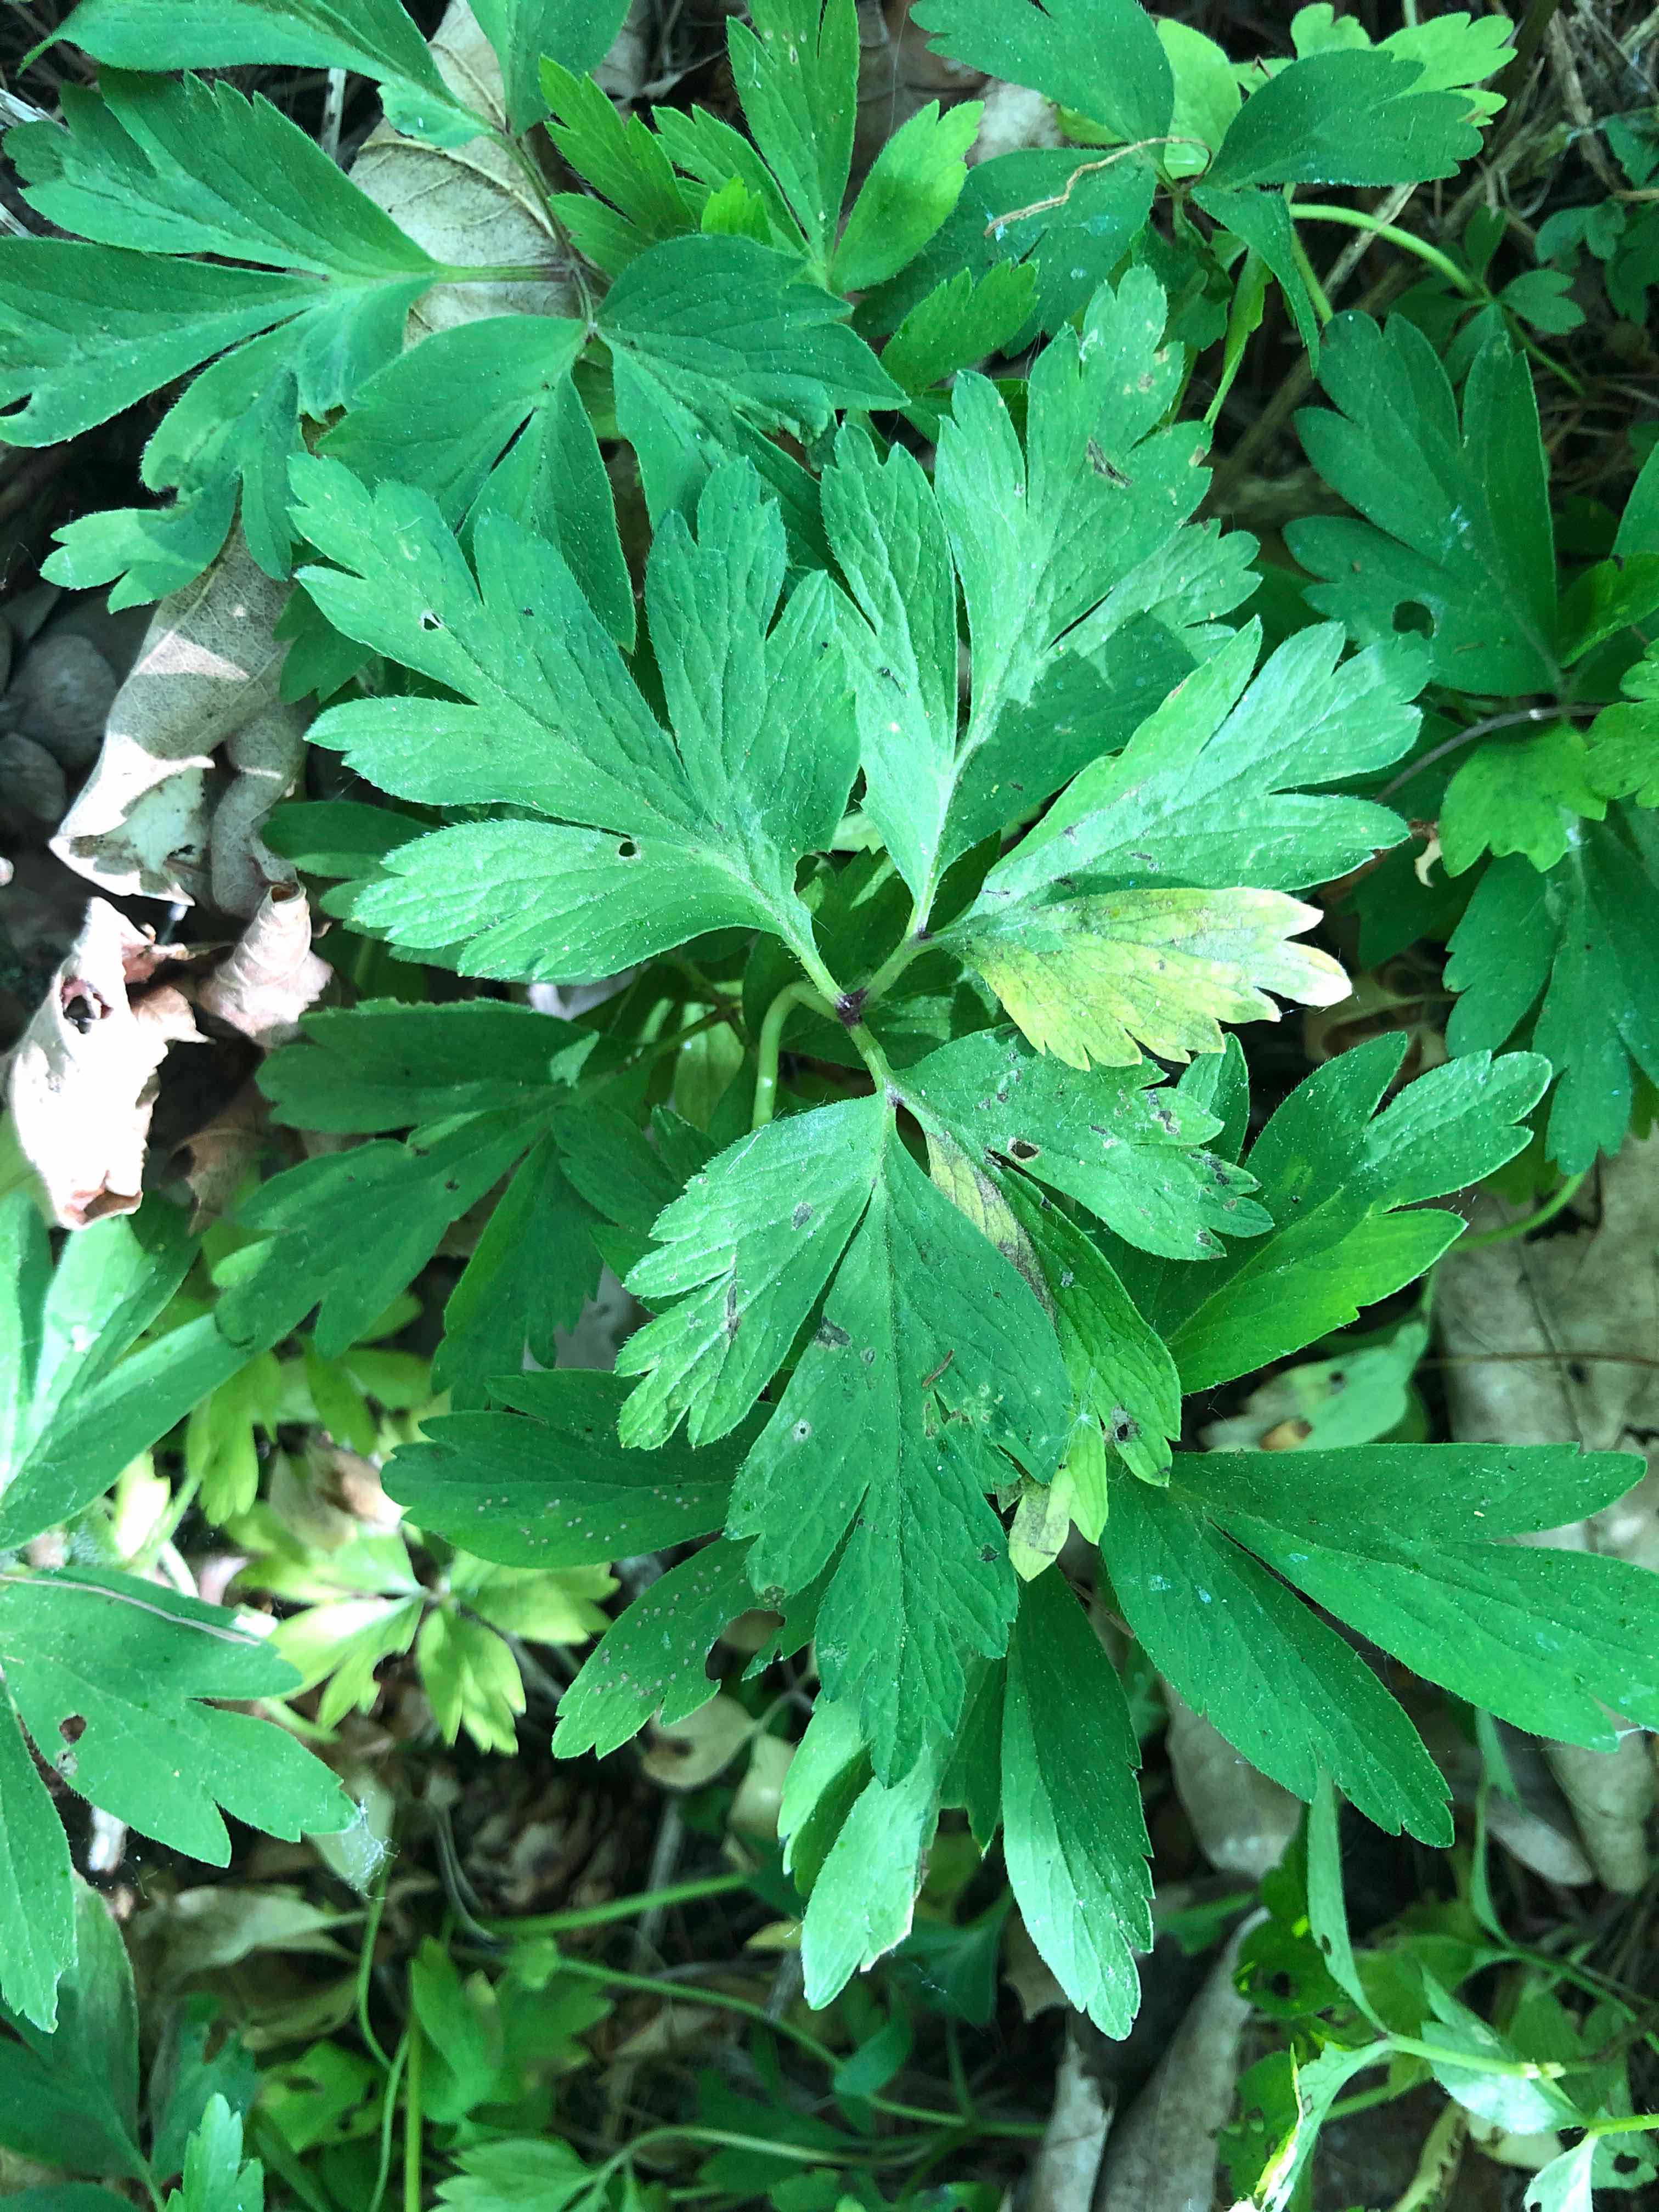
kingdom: Chromista
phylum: Oomycota
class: Peronosporea
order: Peronosporales
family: Peronosporaceae
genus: Plasmoverna
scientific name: Plasmoverna pygmaea
